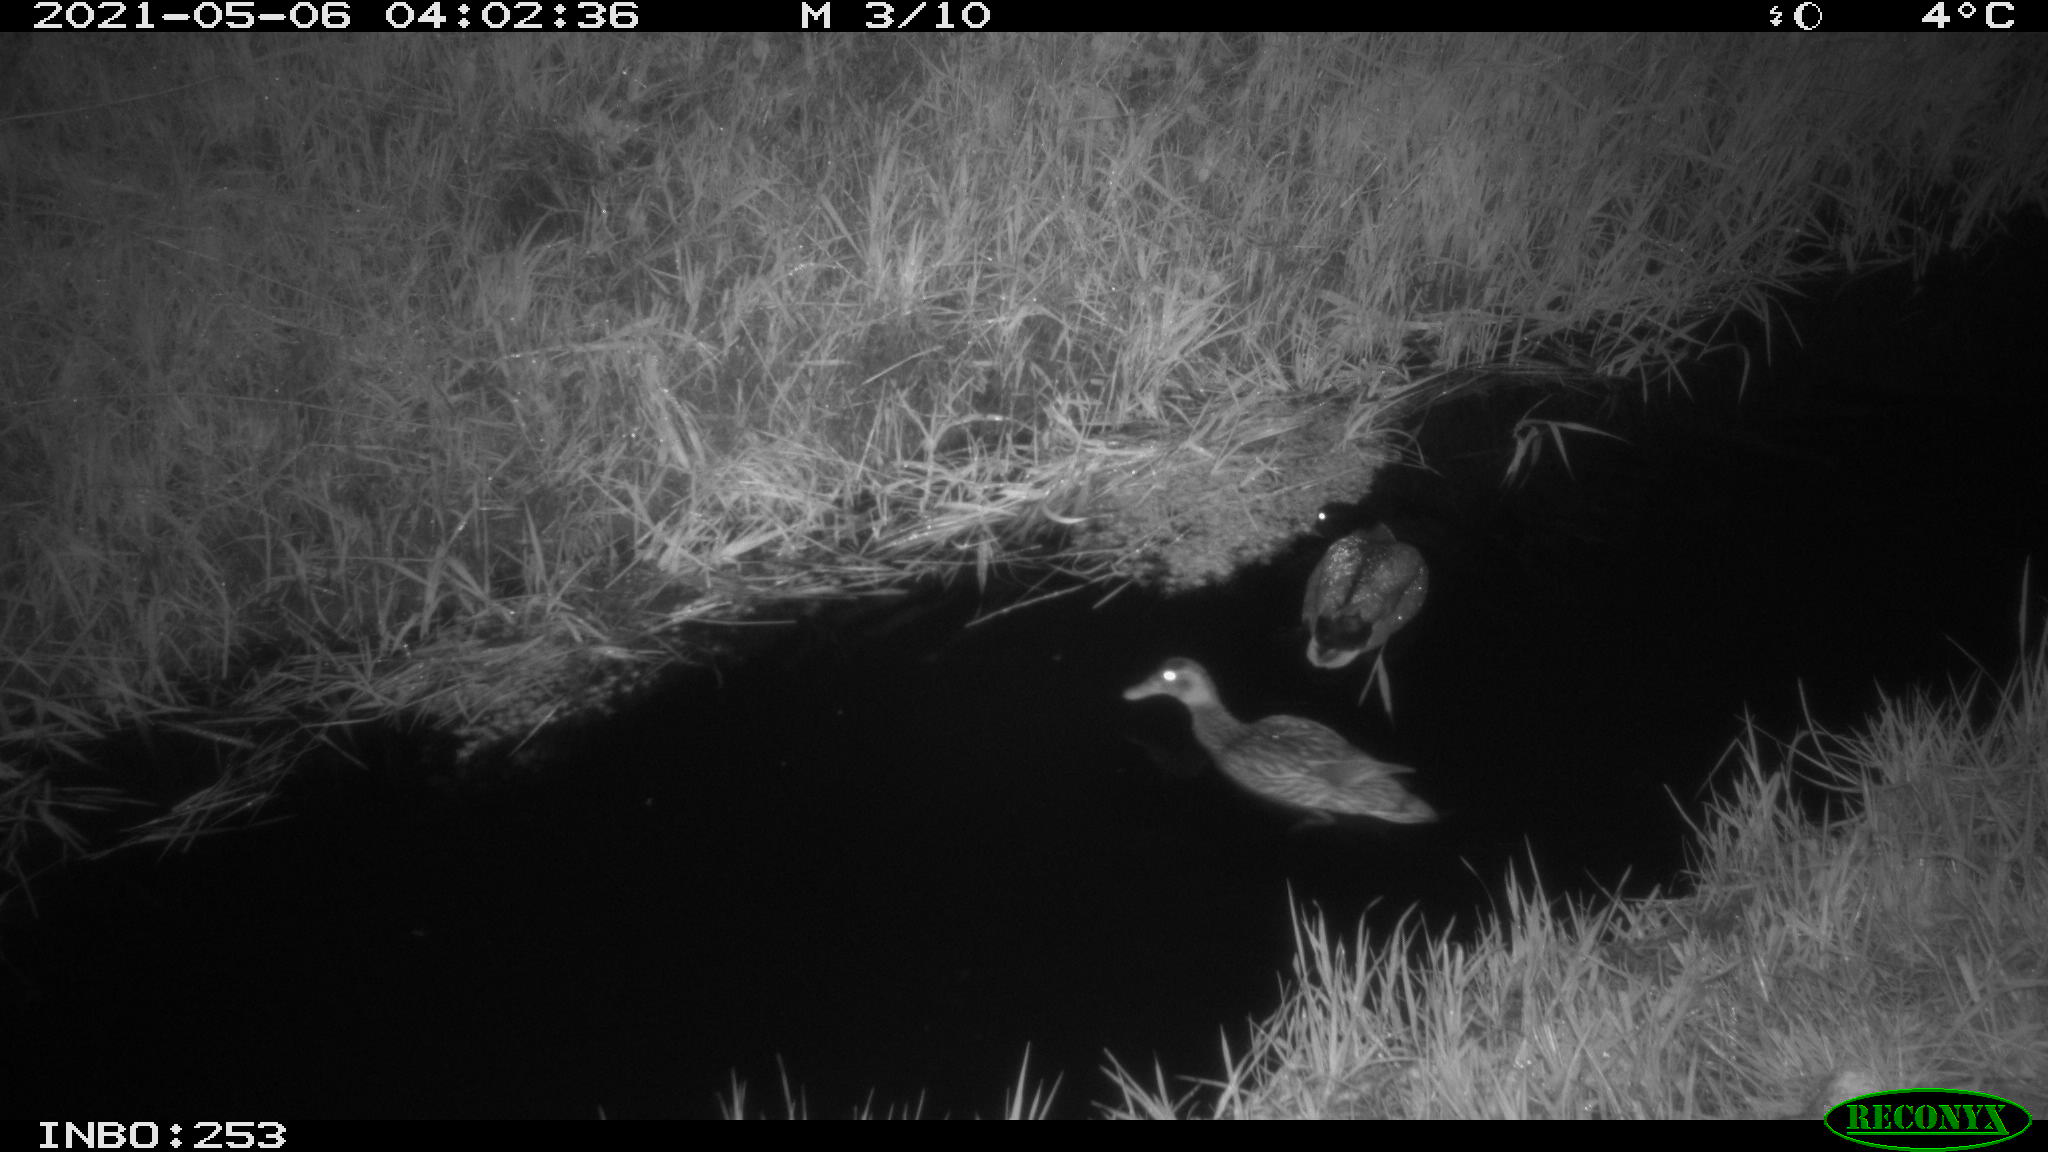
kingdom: Animalia
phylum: Chordata
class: Aves
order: Anseriformes
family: Anatidae
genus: Anas
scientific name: Anas platyrhynchos
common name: Mallard
